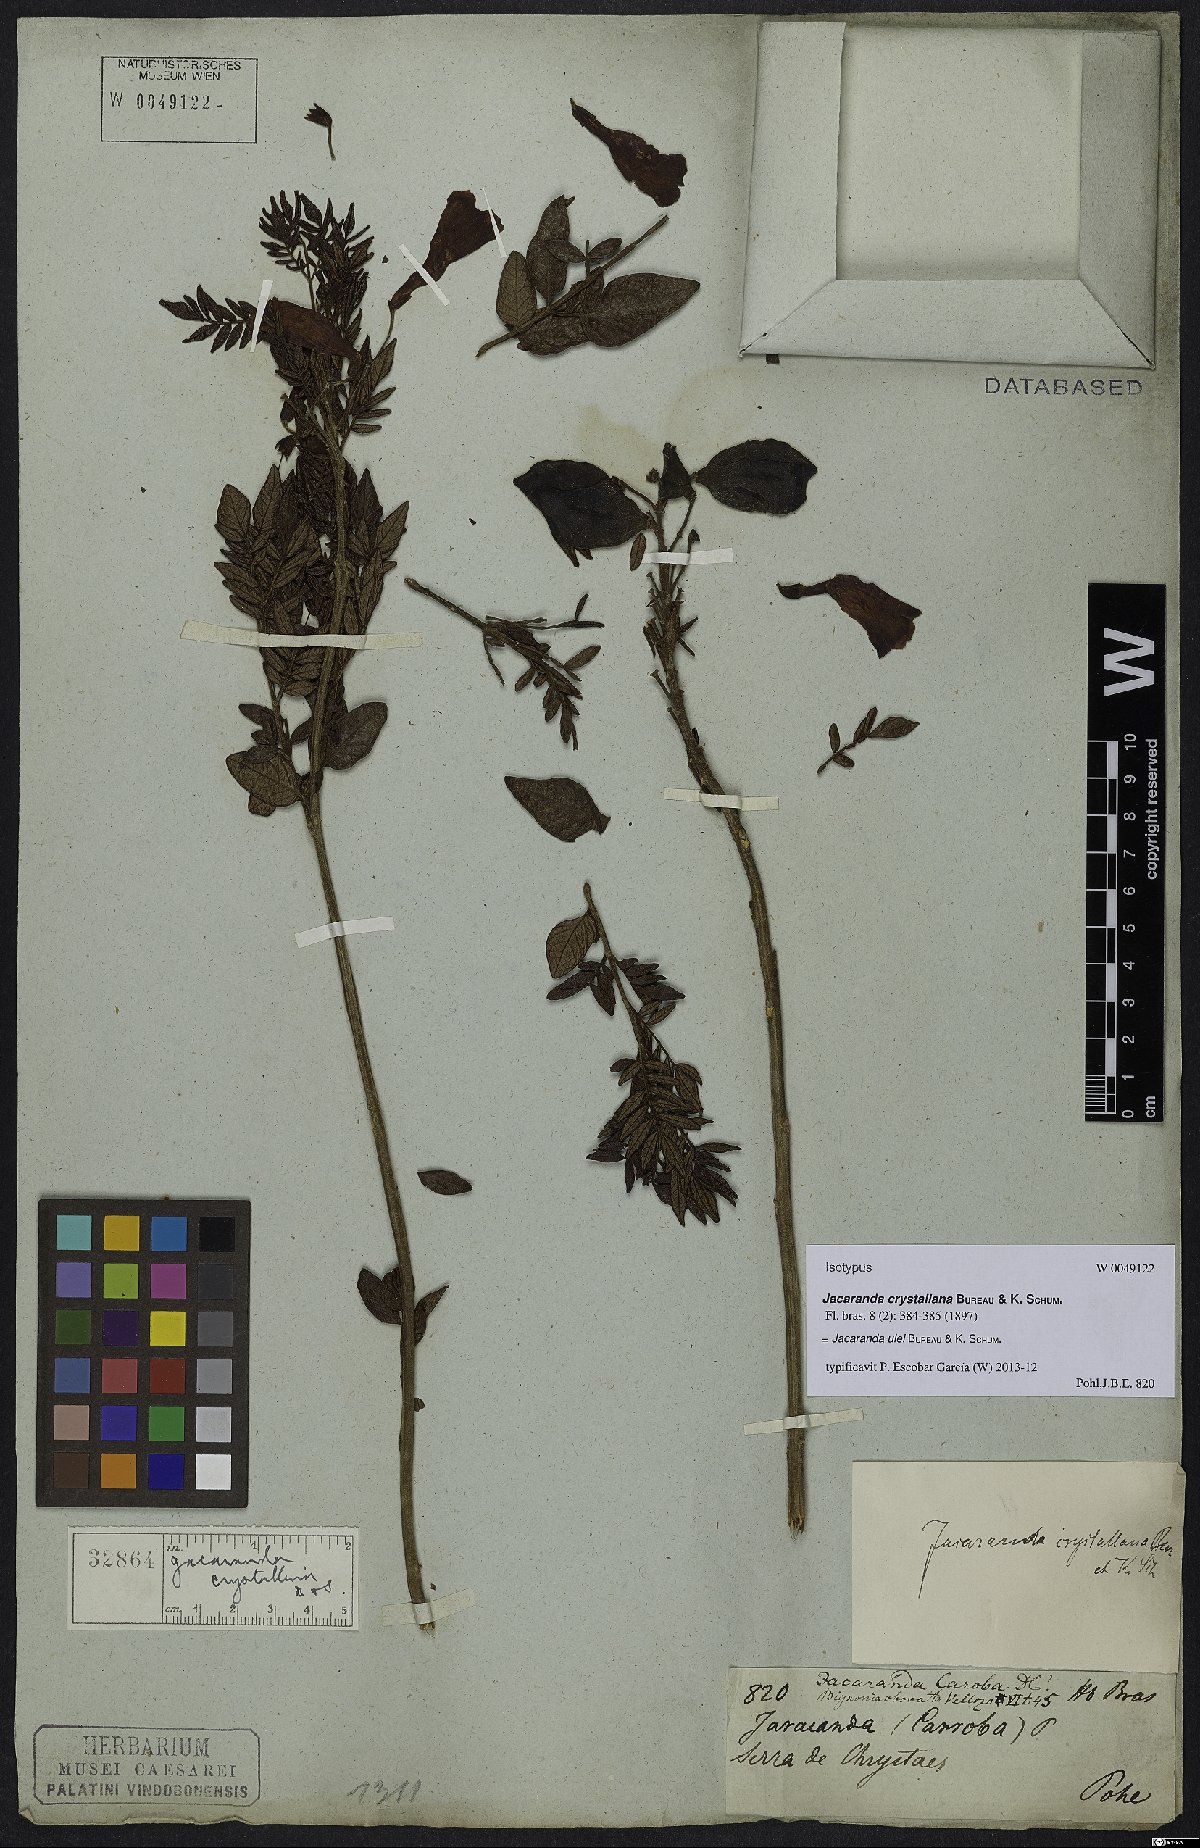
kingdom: Plantae
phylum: Tracheophyta
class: Magnoliopsida
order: Lamiales
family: Bignoniaceae
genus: Jacaranda
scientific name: Jacaranda ulei
